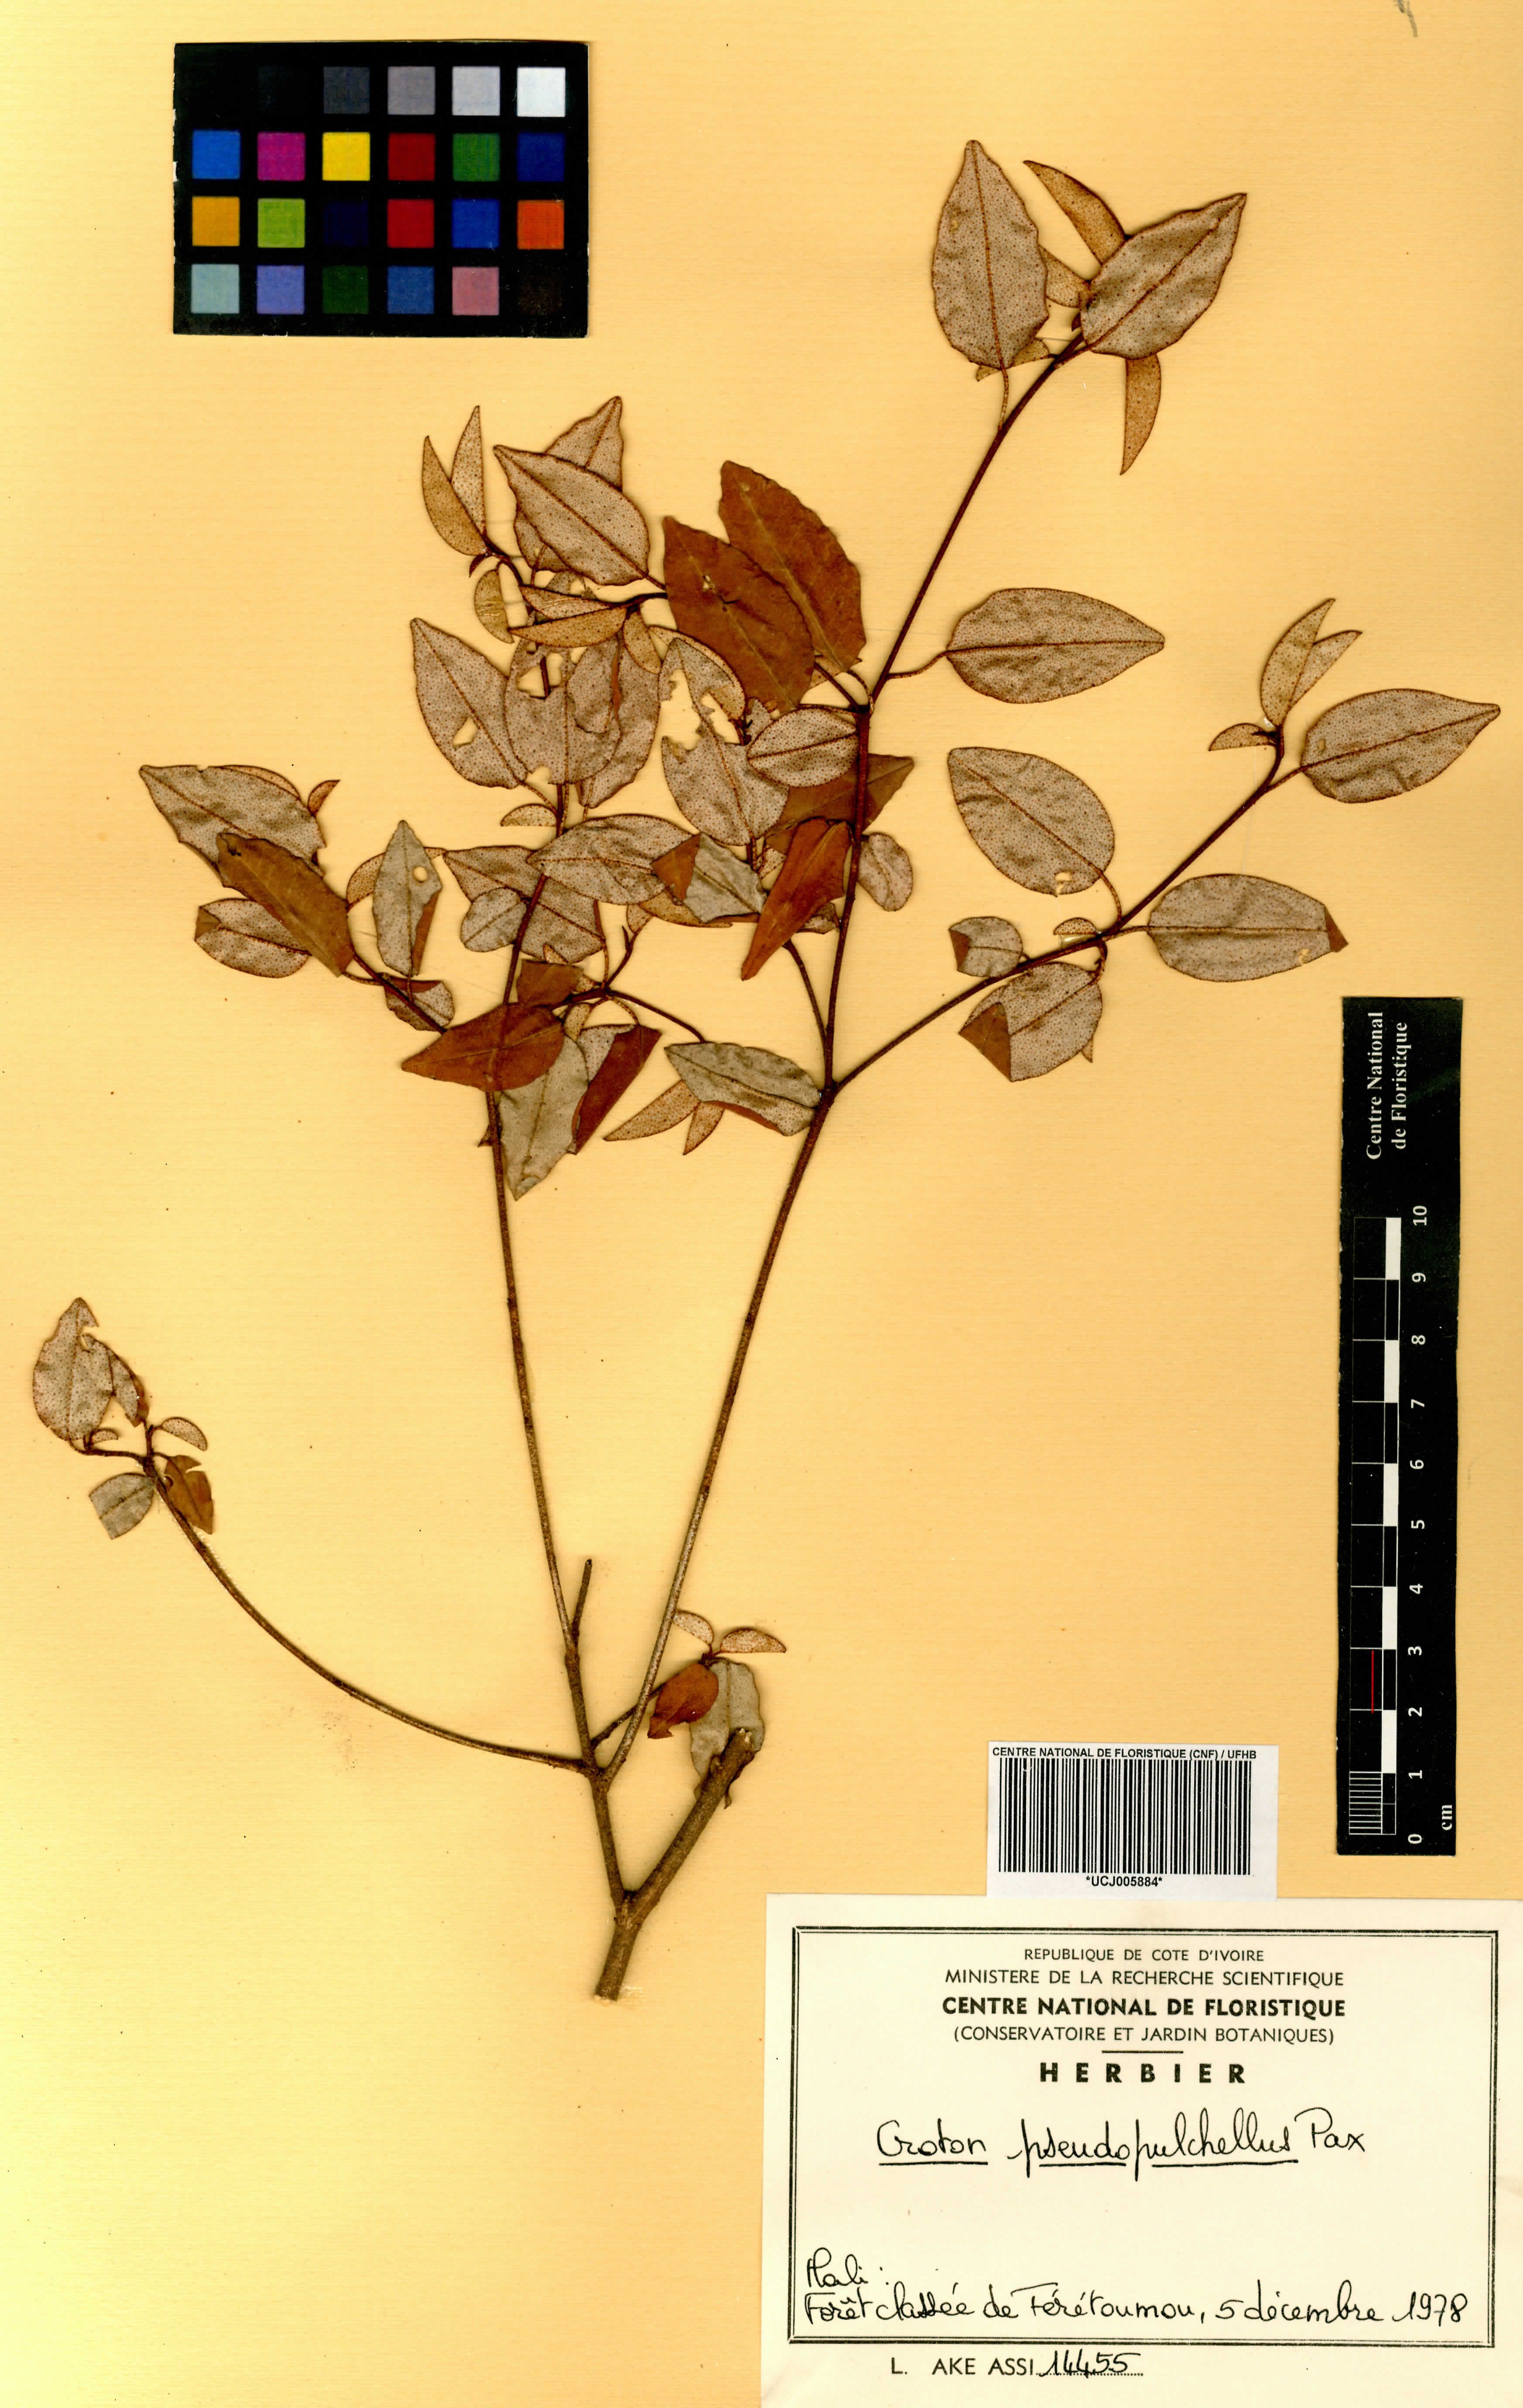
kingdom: Plantae
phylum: Tracheophyta
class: Magnoliopsida
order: Malpighiales
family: Euphorbiaceae
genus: Croton
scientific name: Croton pseudopulchellus
